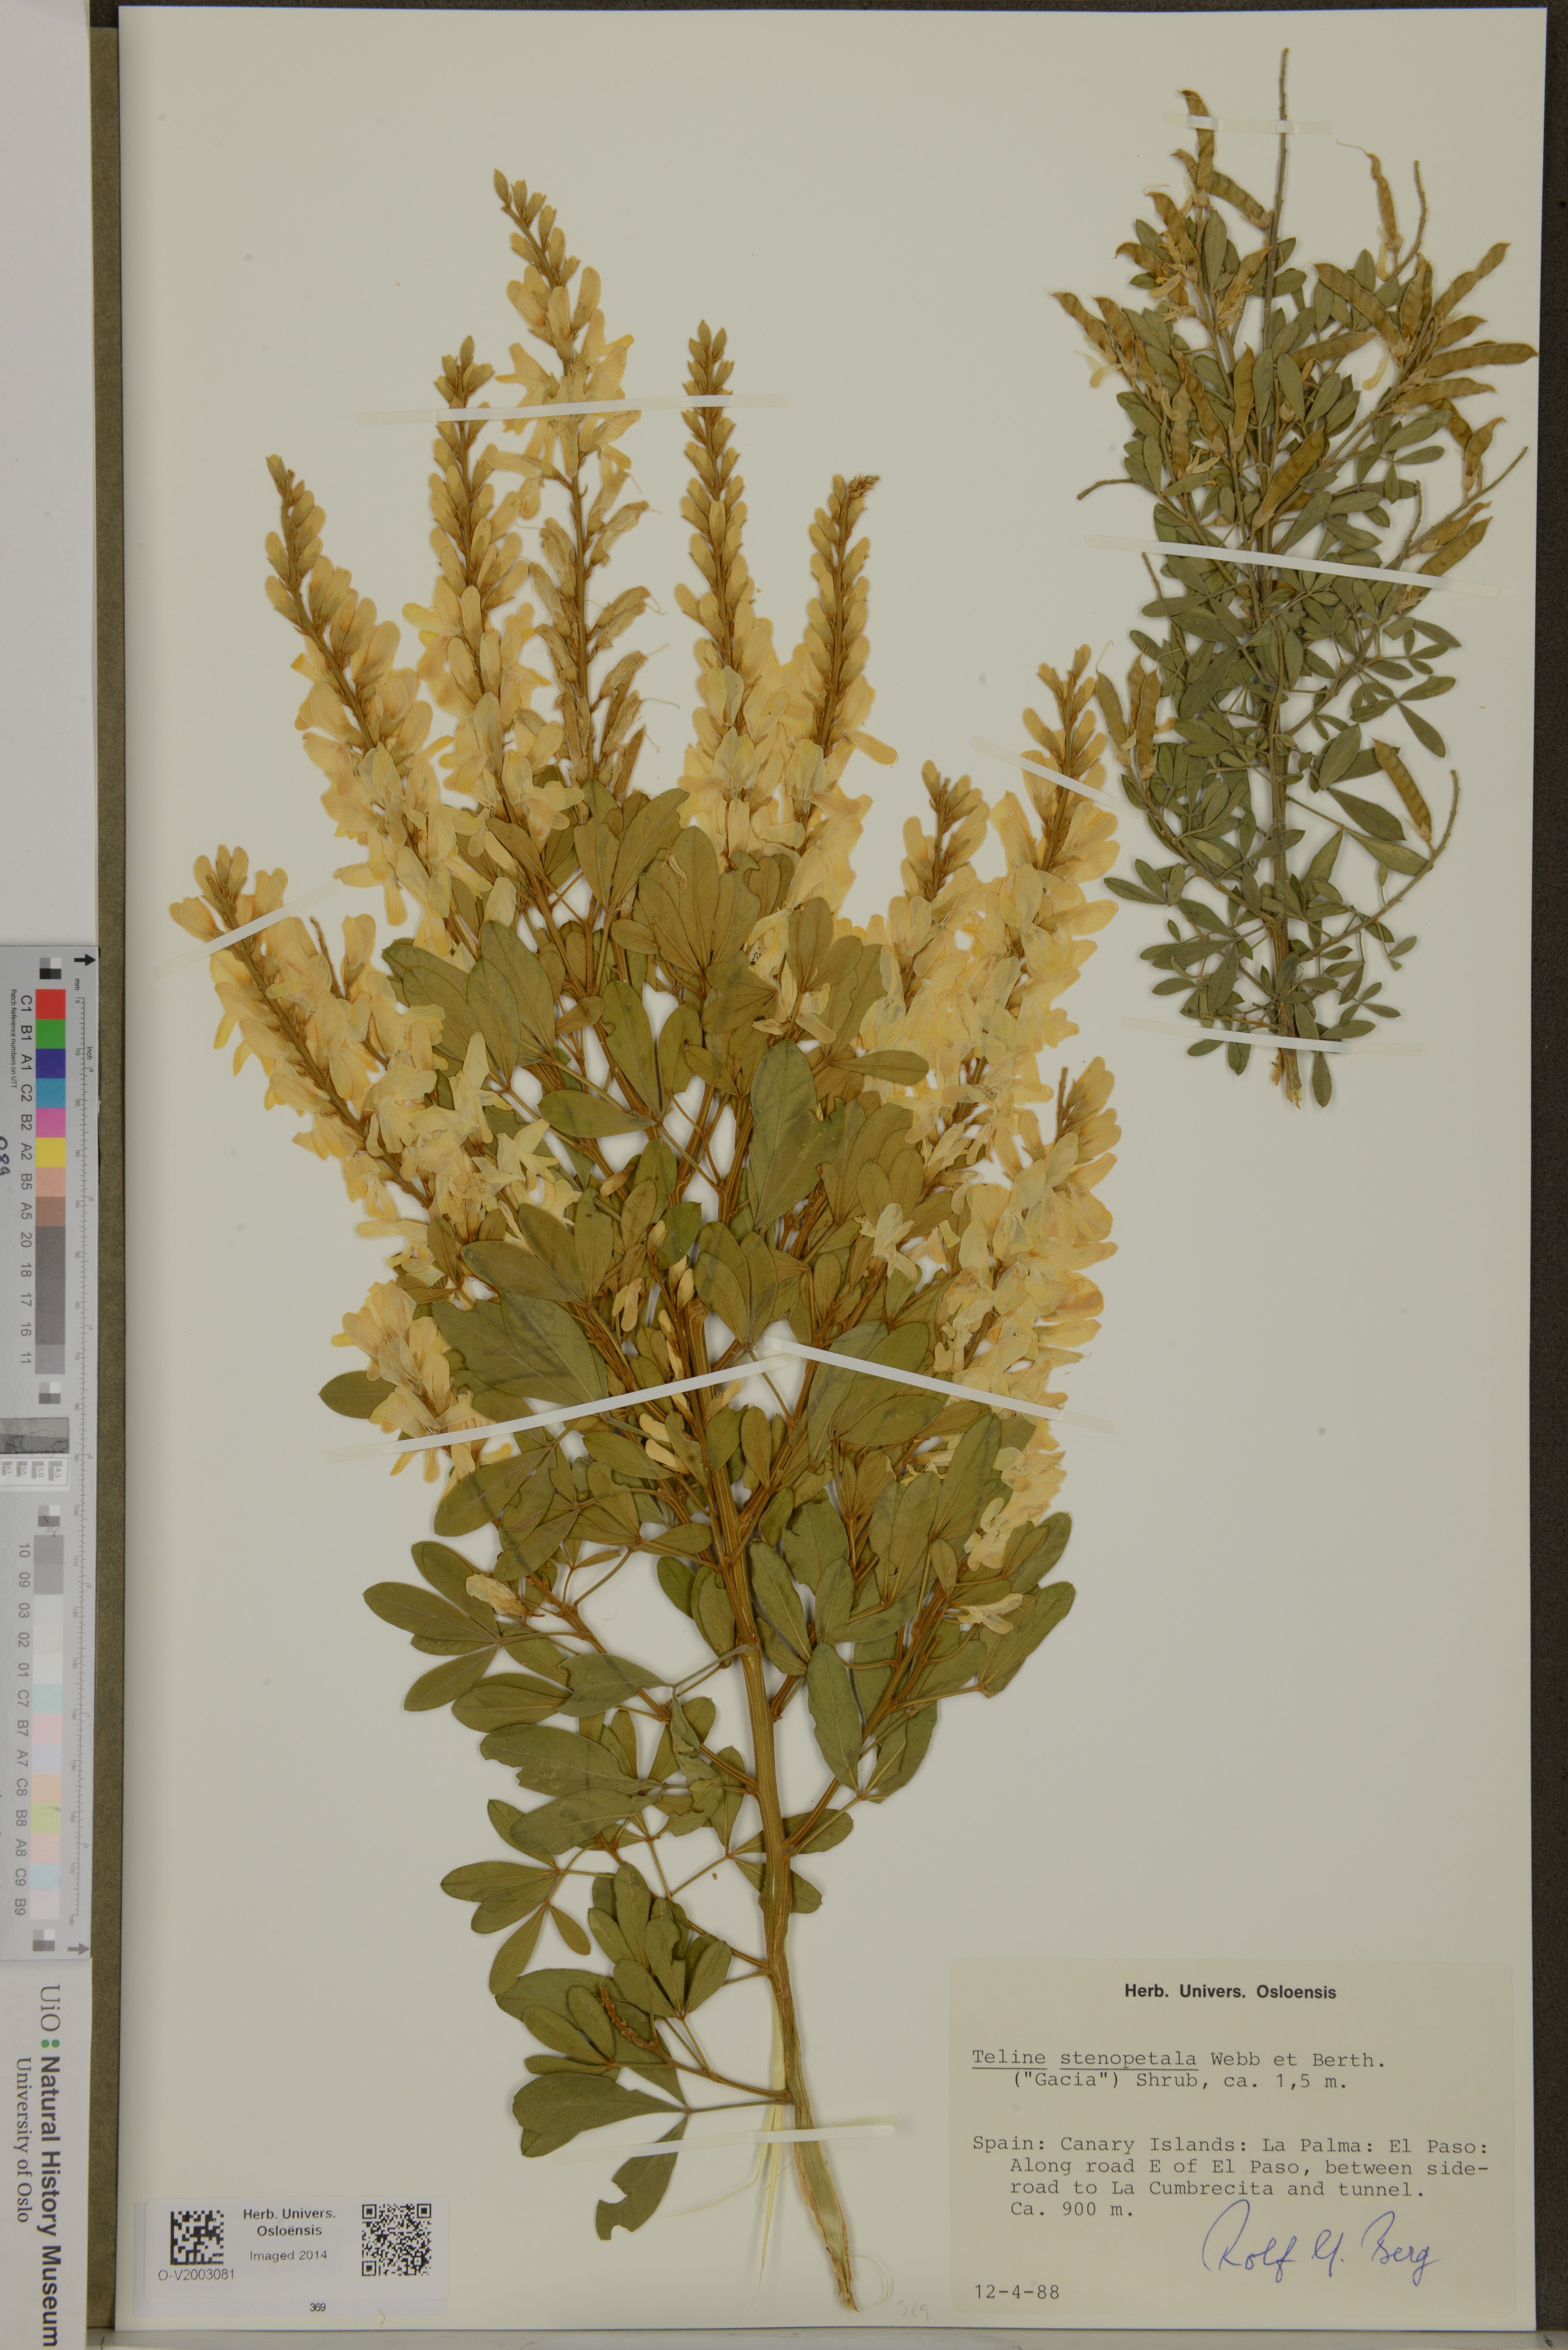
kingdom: Plantae
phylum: Tracheophyta
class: Magnoliopsida
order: Fabales
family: Fabaceae
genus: Genista
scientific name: Genista stenopetala
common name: Leafy broom
